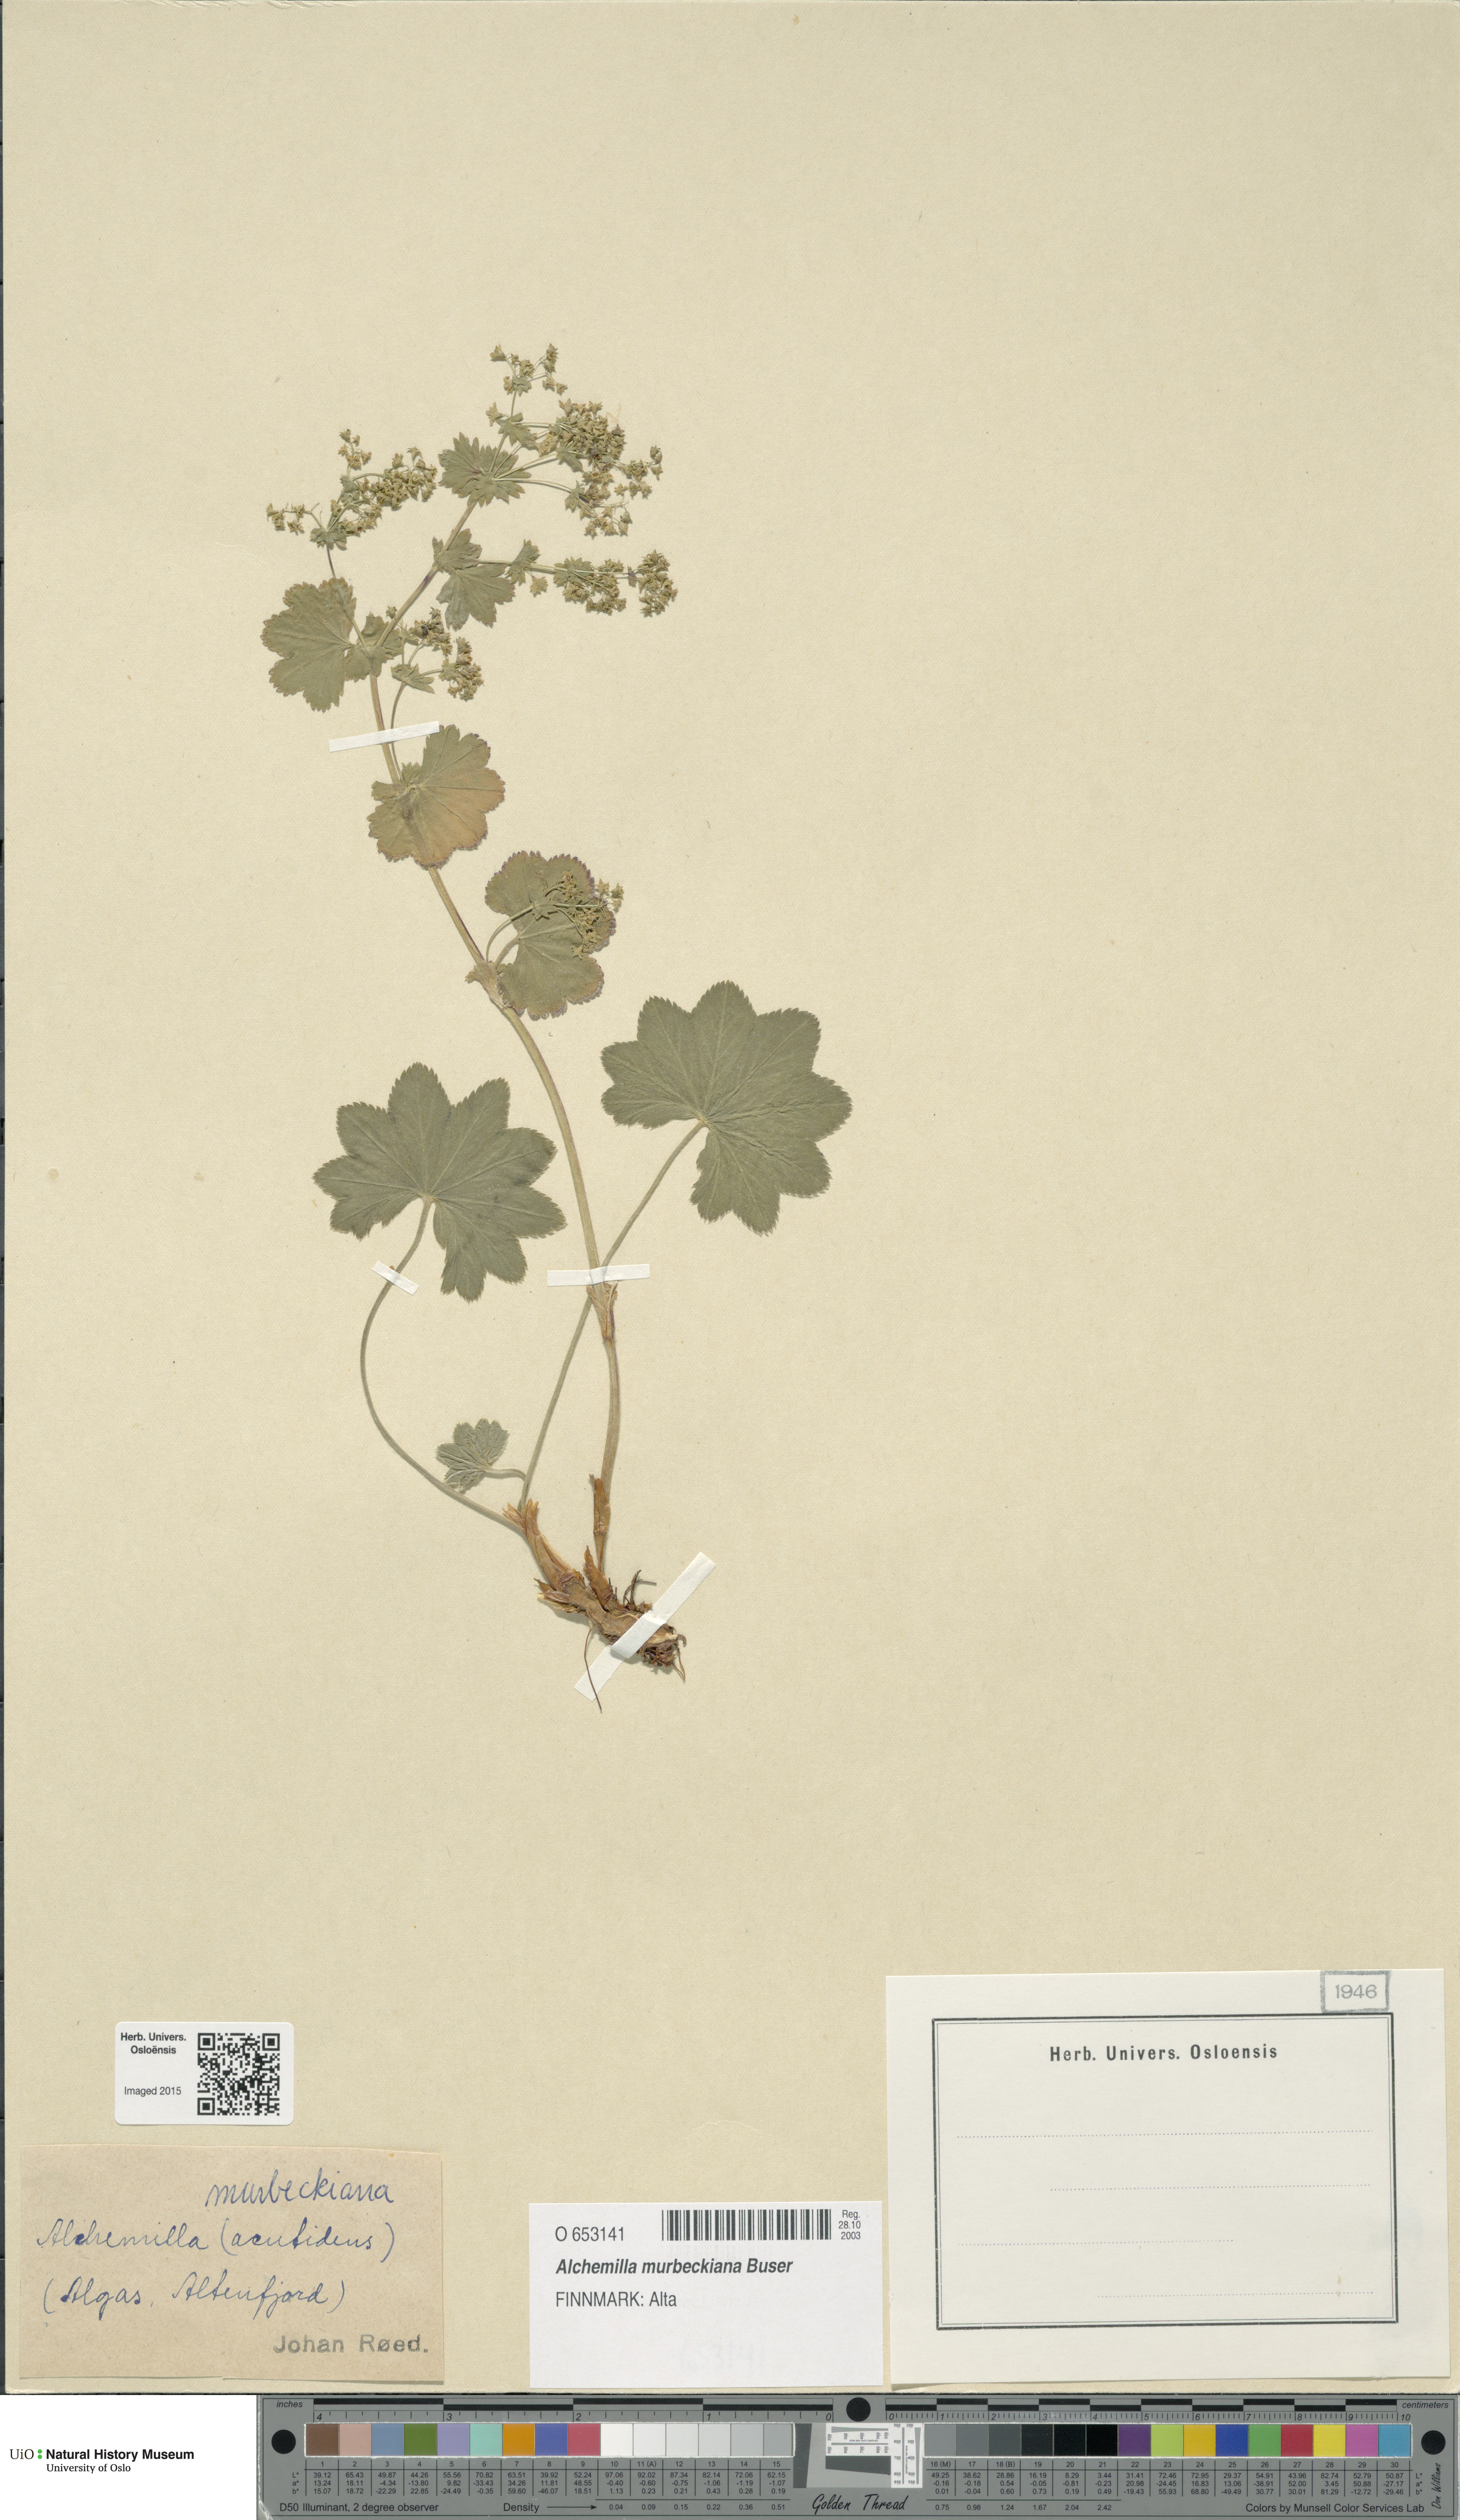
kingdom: Plantae
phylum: Tracheophyta
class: Magnoliopsida
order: Rosales
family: Rosaceae
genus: Alchemilla
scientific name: Alchemilla murbeckiana
